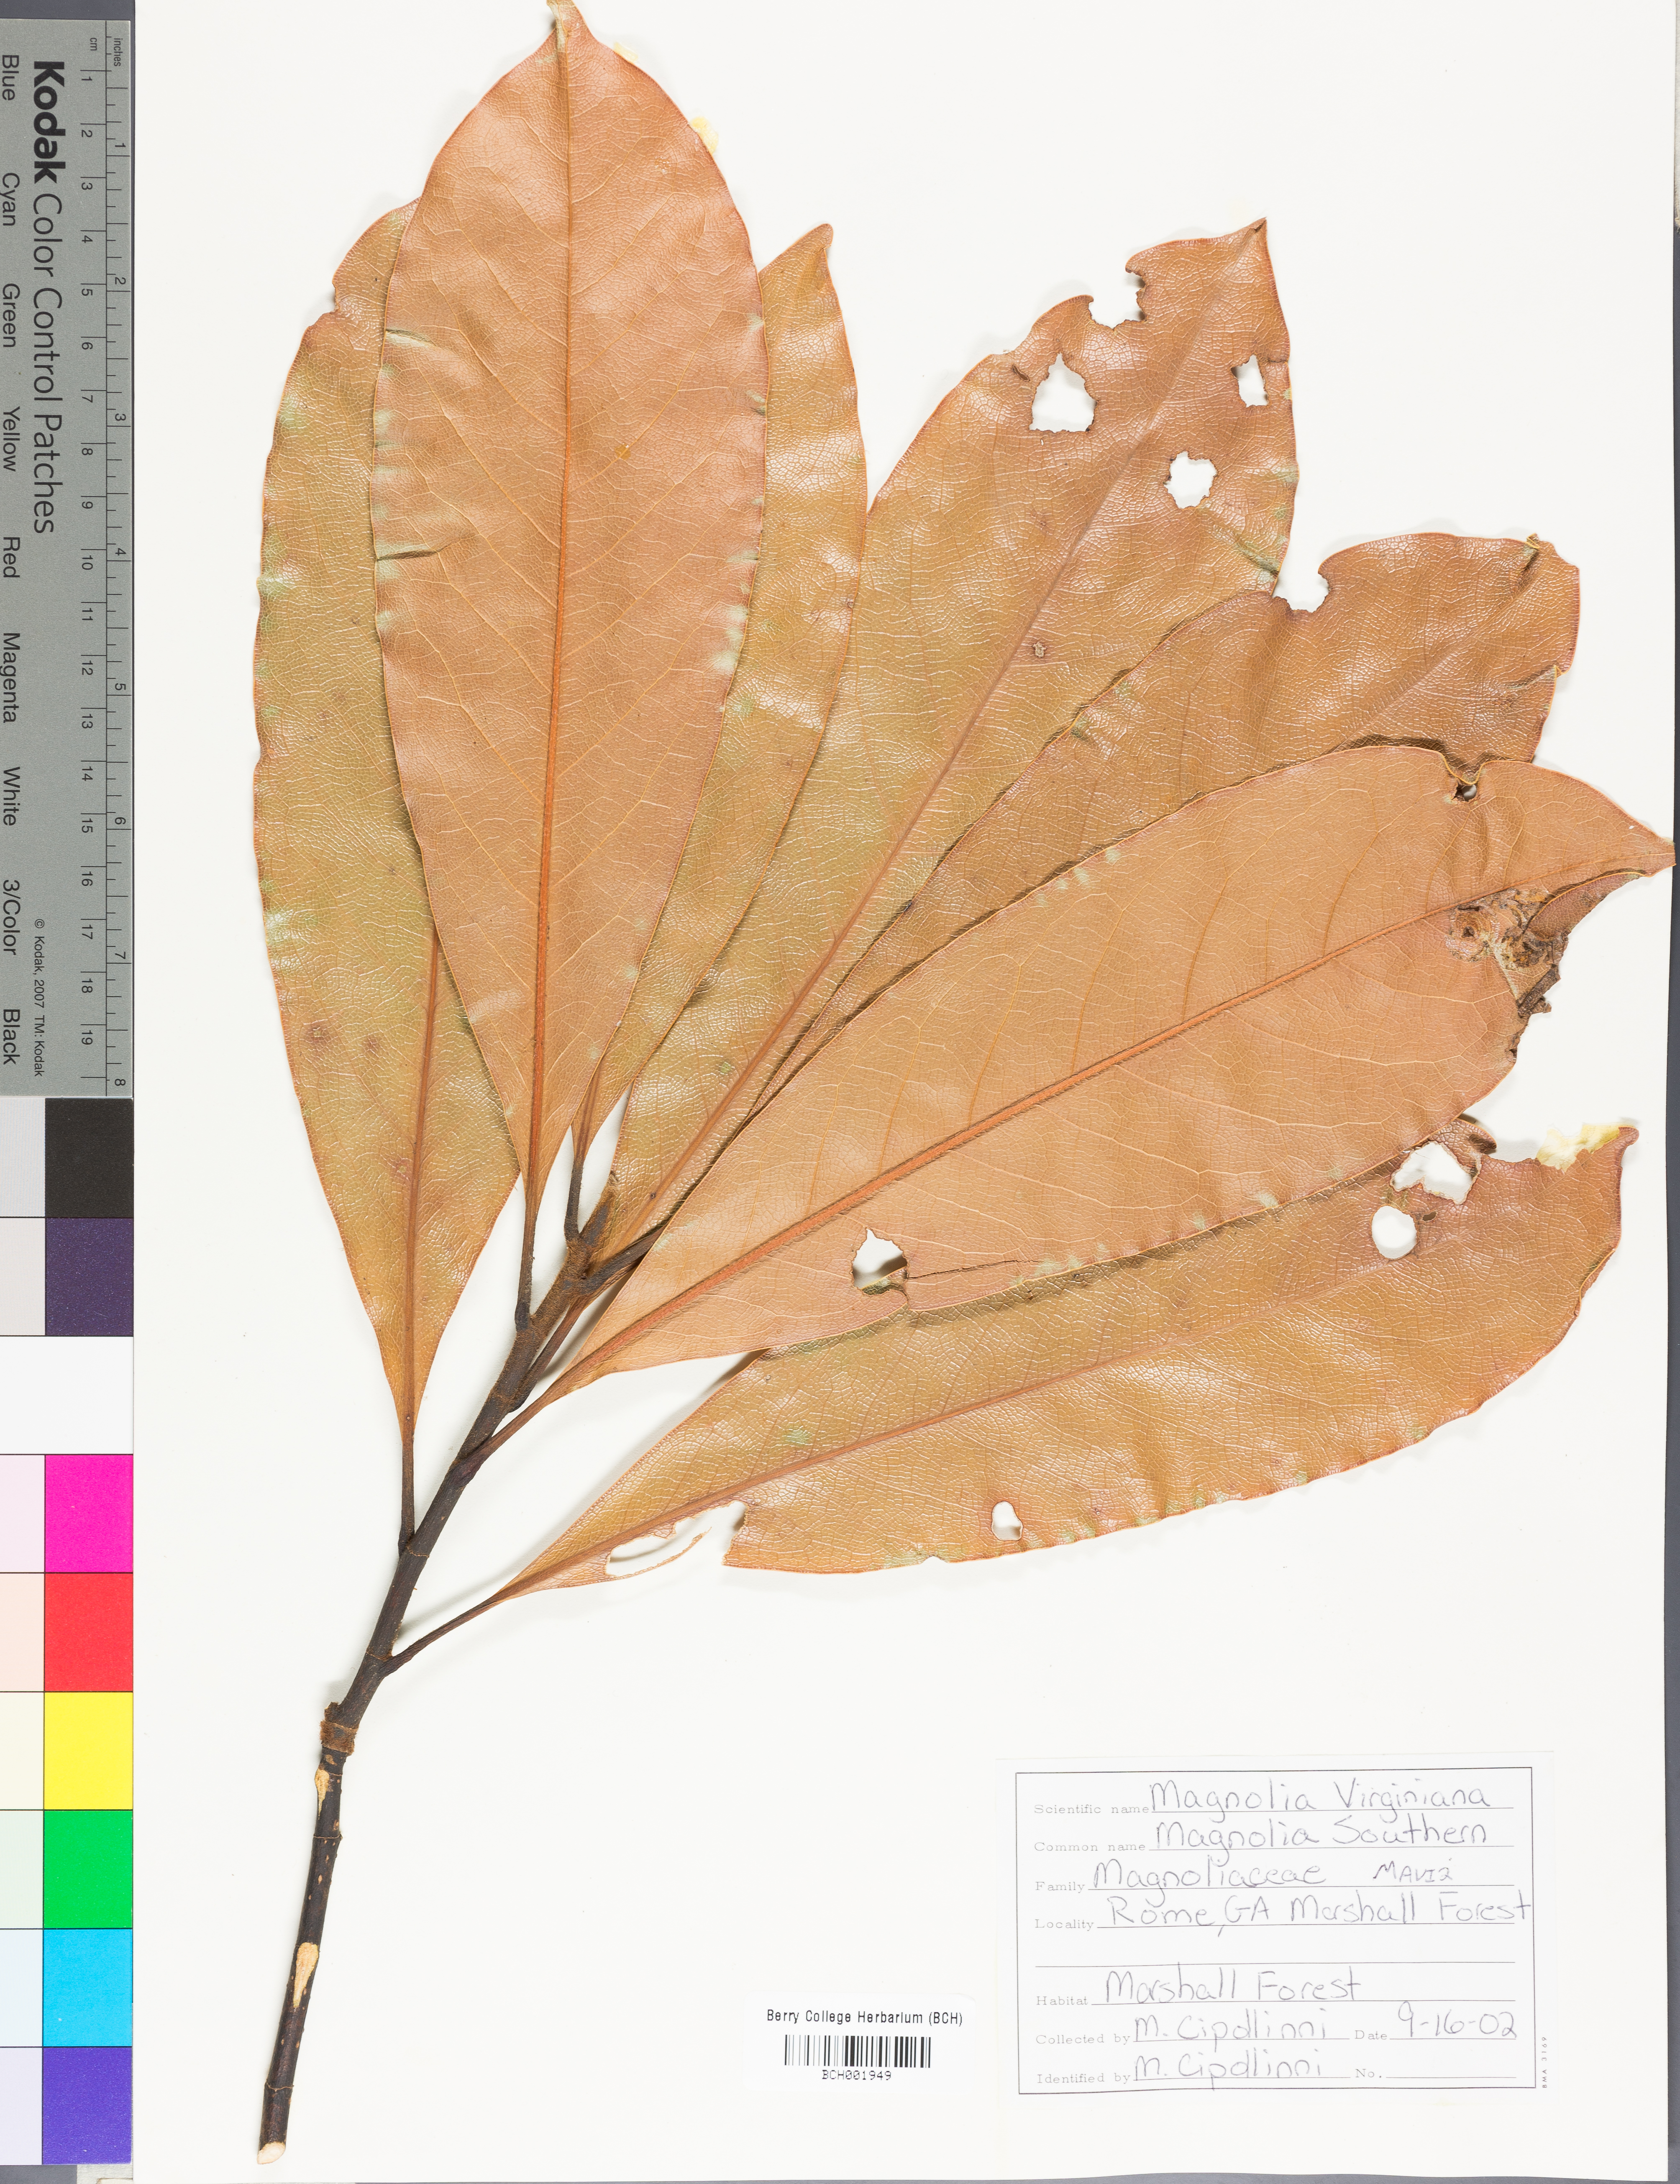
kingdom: Plantae
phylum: Tracheophyta
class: Magnoliopsida
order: Magnoliales
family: Magnoliaceae
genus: Magnolia
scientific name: Magnolia virginiana
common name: Swamp bay
